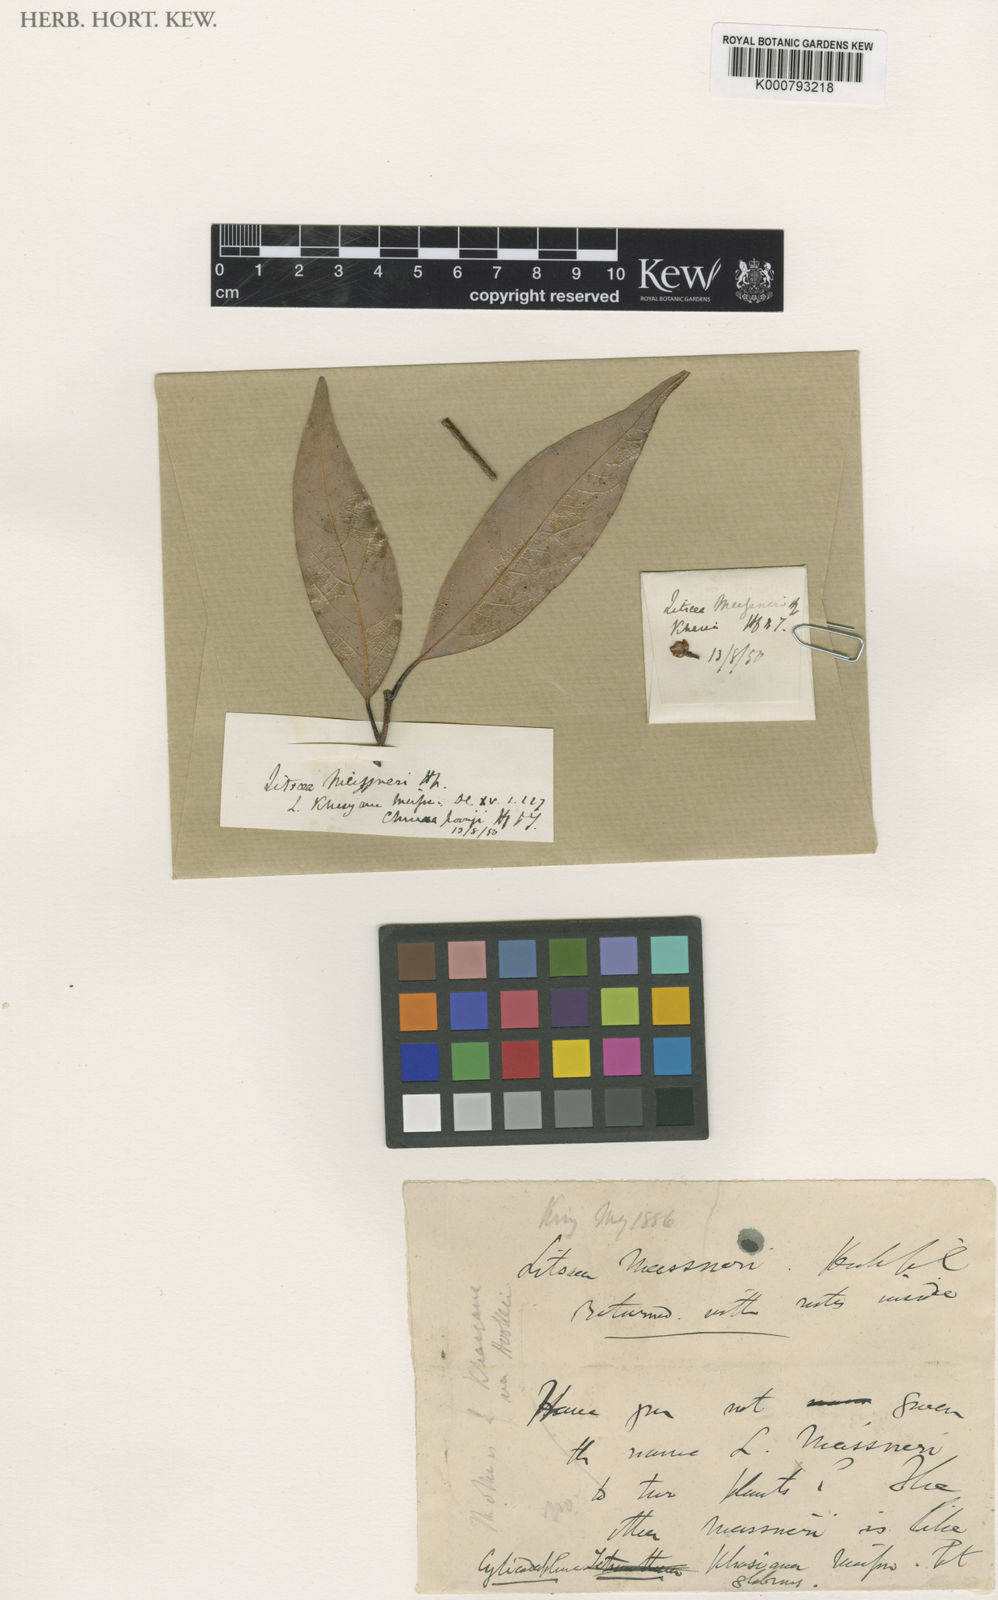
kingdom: Plantae
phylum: Tracheophyta
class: Magnoliopsida
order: Laurales
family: Lauraceae
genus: Litsea
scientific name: Litsea khasyana
